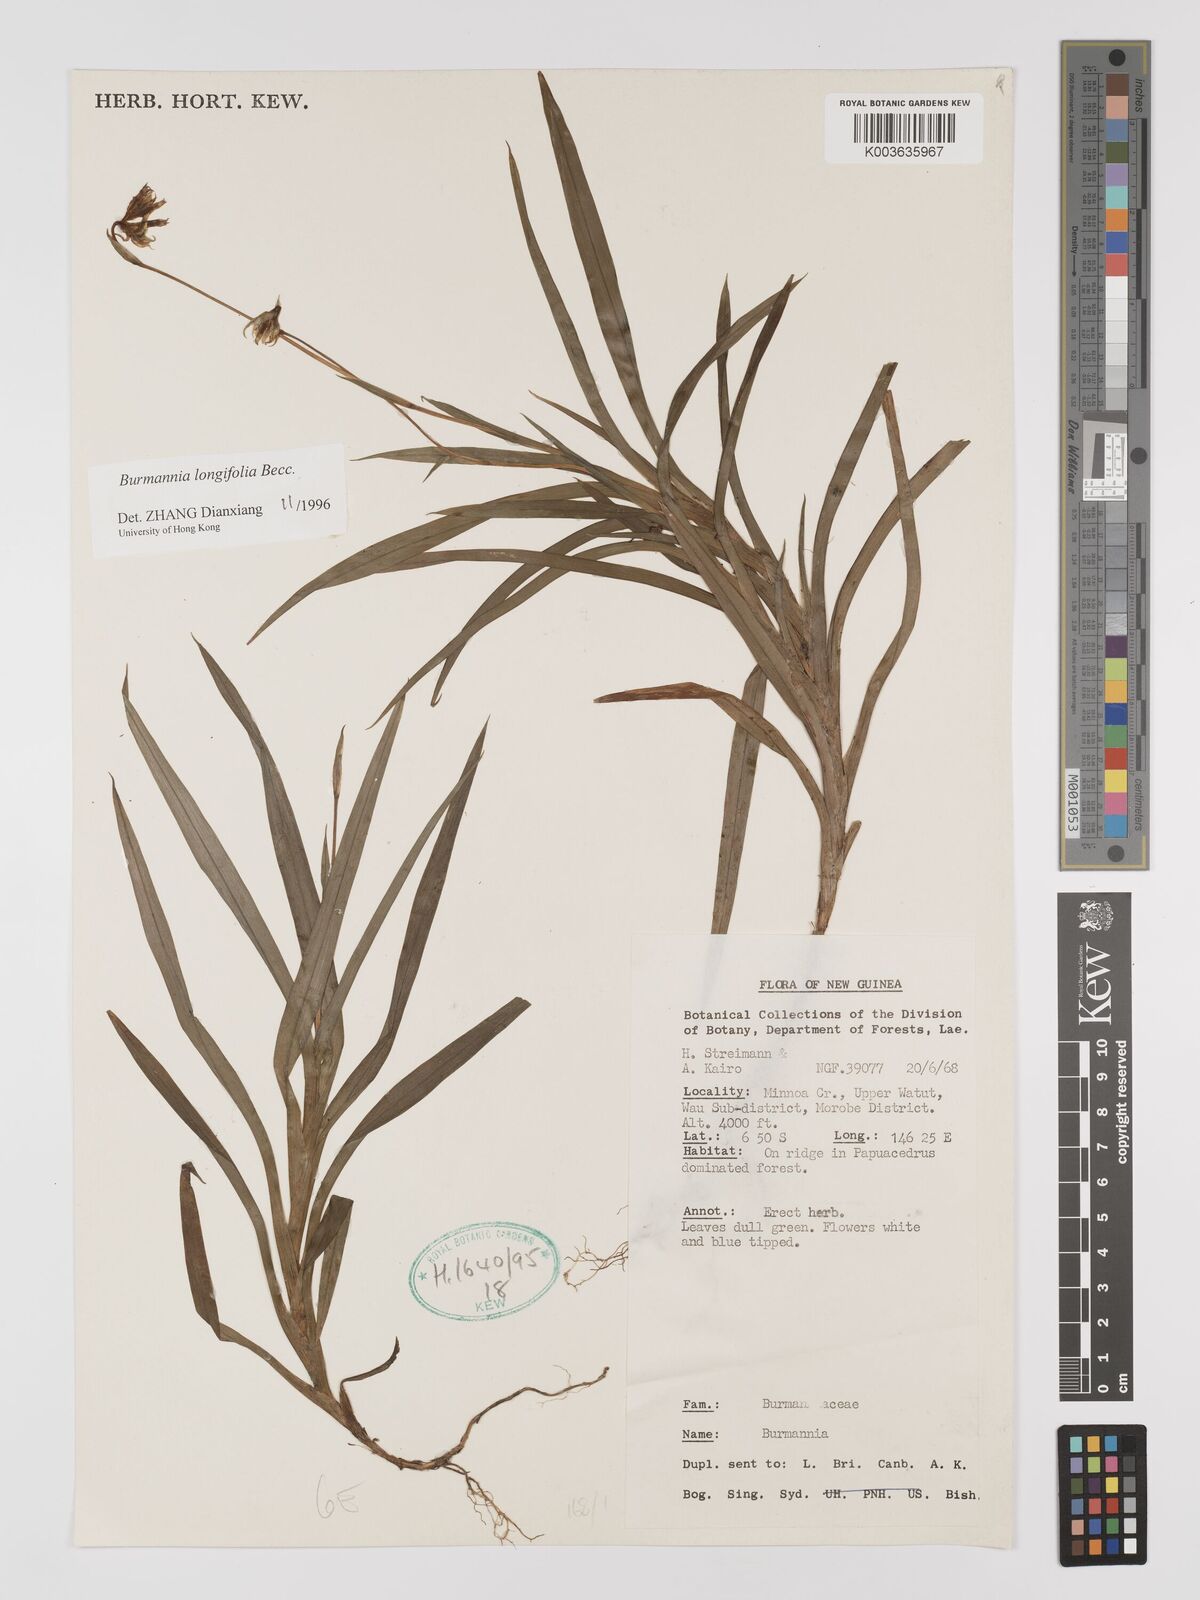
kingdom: Plantae
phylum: Tracheophyta
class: Liliopsida
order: Dioscoreales
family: Burmanniaceae
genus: Burmannia
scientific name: Burmannia longifolia
